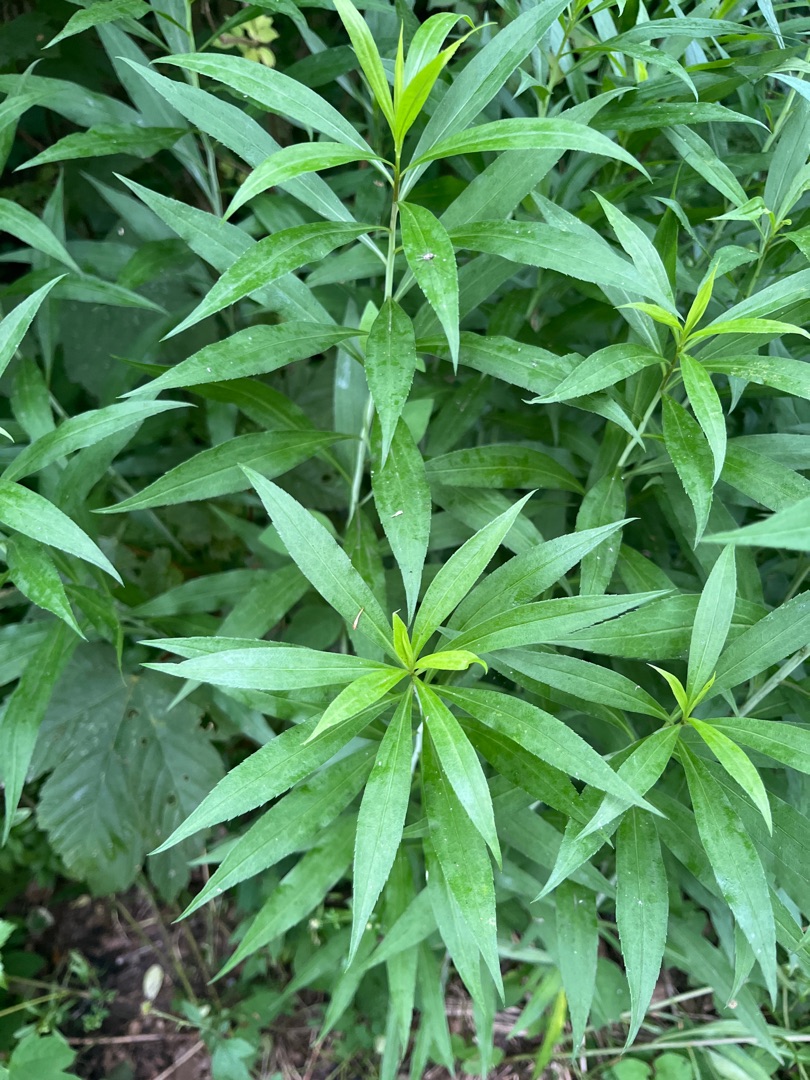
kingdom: Plantae
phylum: Tracheophyta
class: Magnoliopsida
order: Asterales
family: Asteraceae
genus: Solidago
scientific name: Solidago gigantea
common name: Sildig gyldenris
